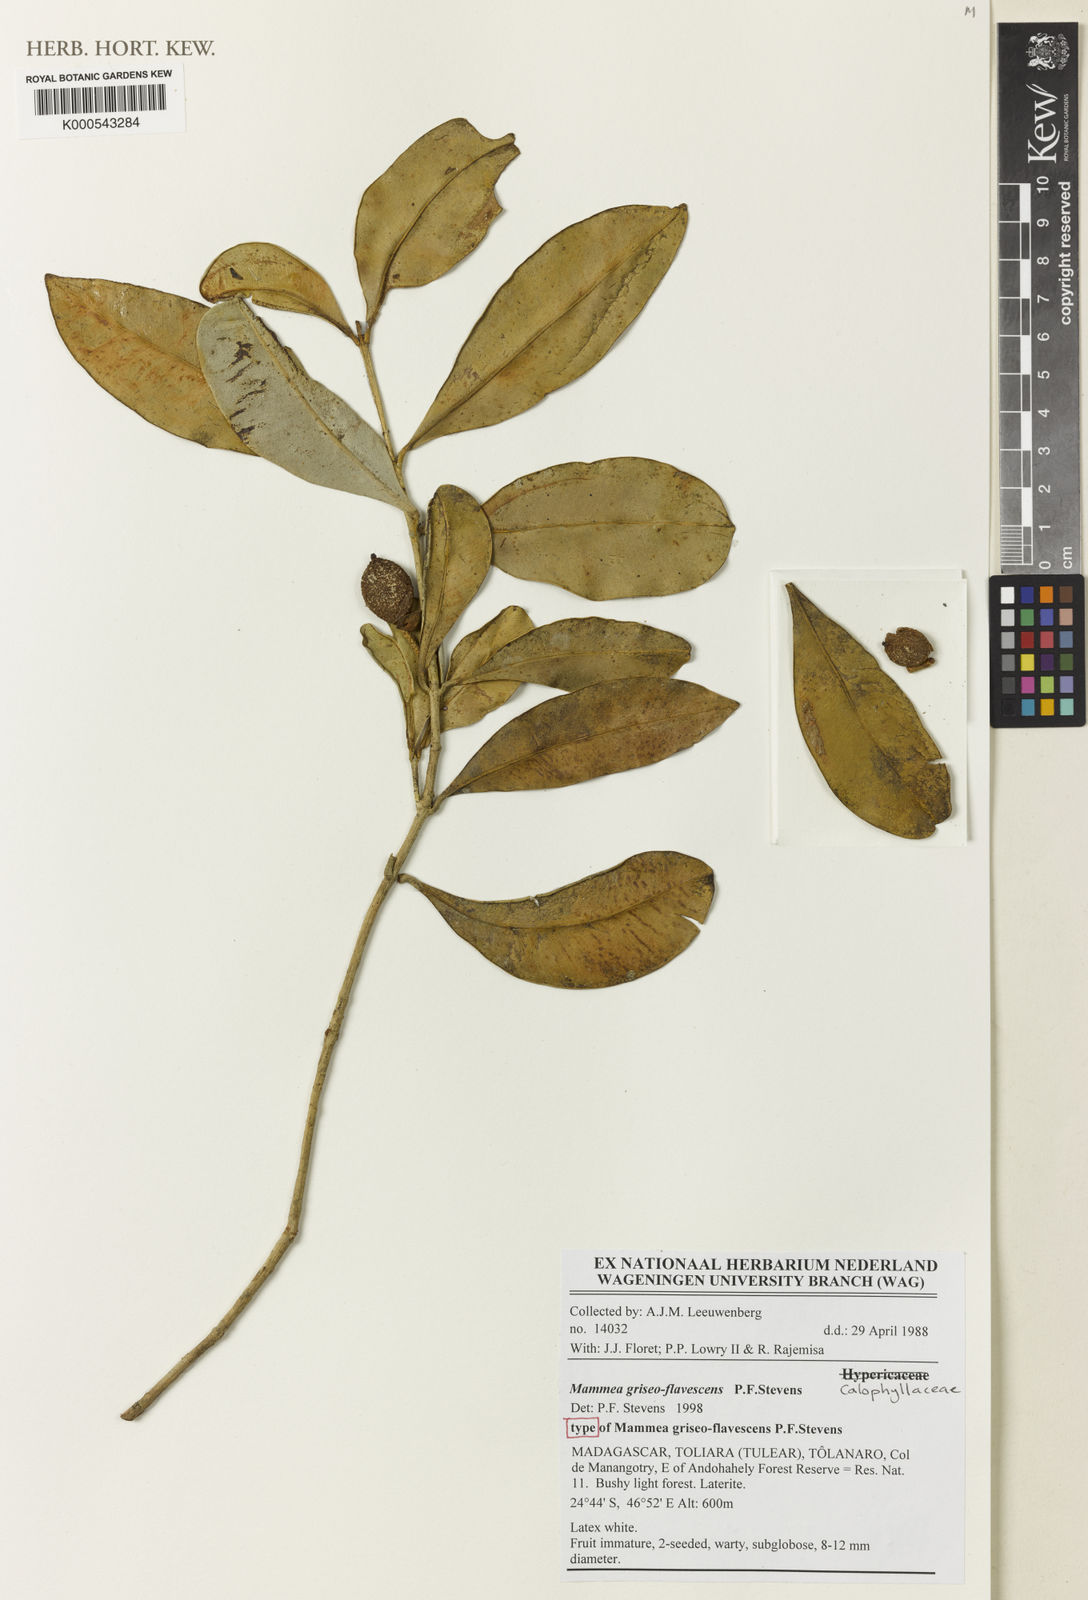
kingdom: Plantae
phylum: Tracheophyta
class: Magnoliopsida
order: Malpighiales
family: Calophyllaceae
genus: Mammea
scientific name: Mammea
